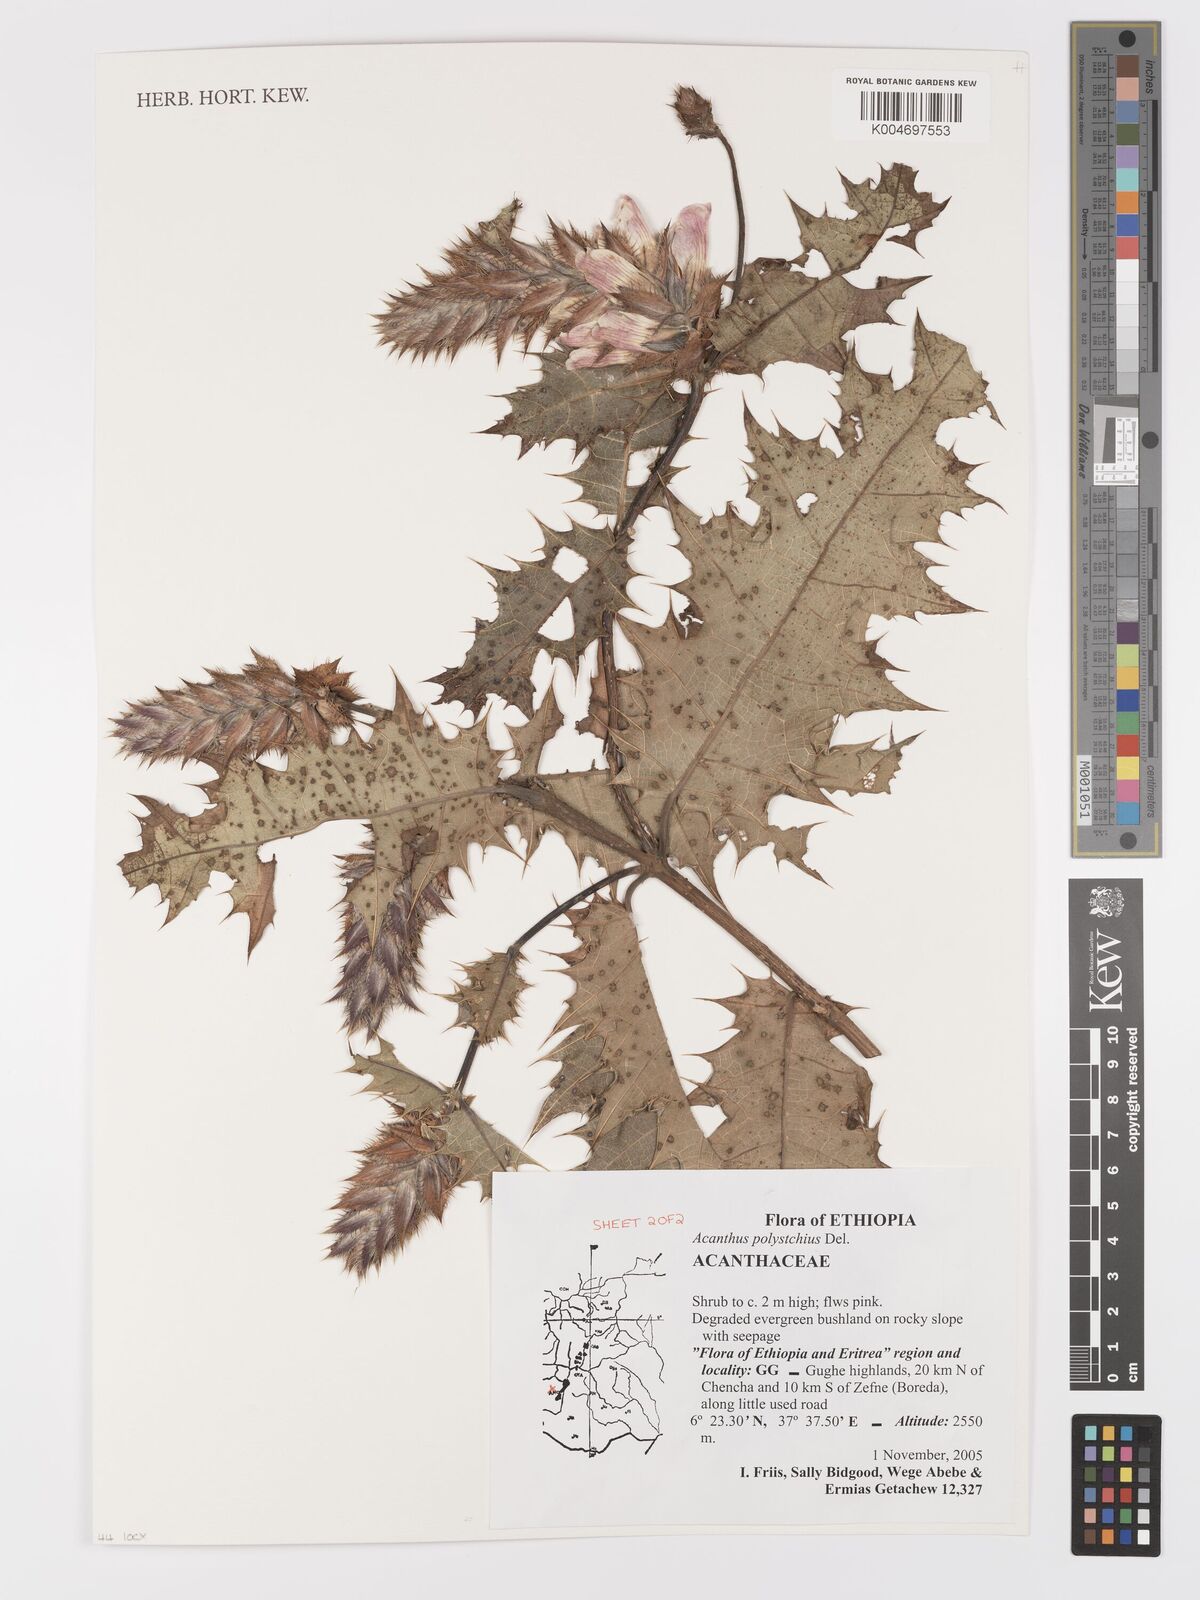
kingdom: Plantae
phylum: Tracheophyta
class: Magnoliopsida
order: Lamiales
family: Acanthaceae
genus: Acanthus
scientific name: Acanthus polystachyus
